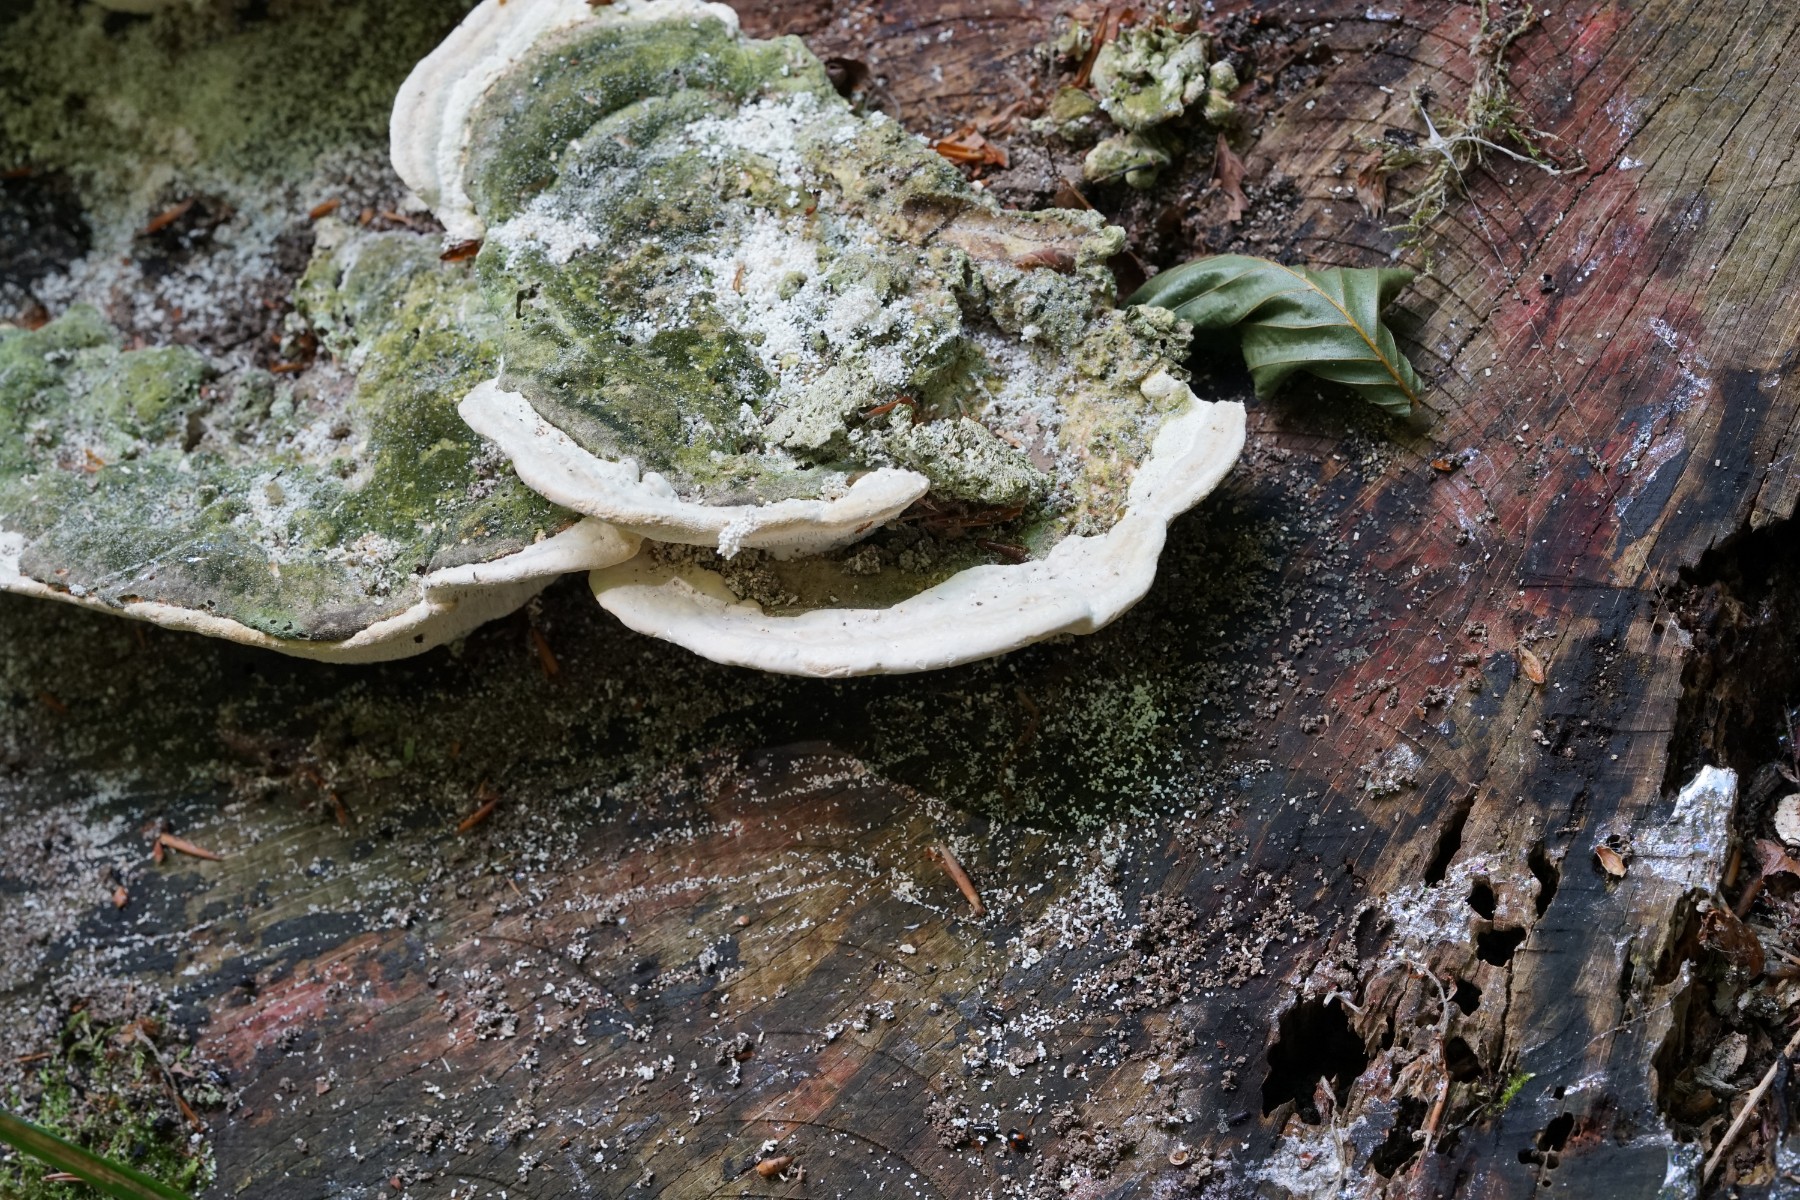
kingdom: Fungi
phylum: Basidiomycota
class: Agaricomycetes
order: Polyporales
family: Polyporaceae
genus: Trametes
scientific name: Trametes gibbosa
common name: puklet læderporesvamp
